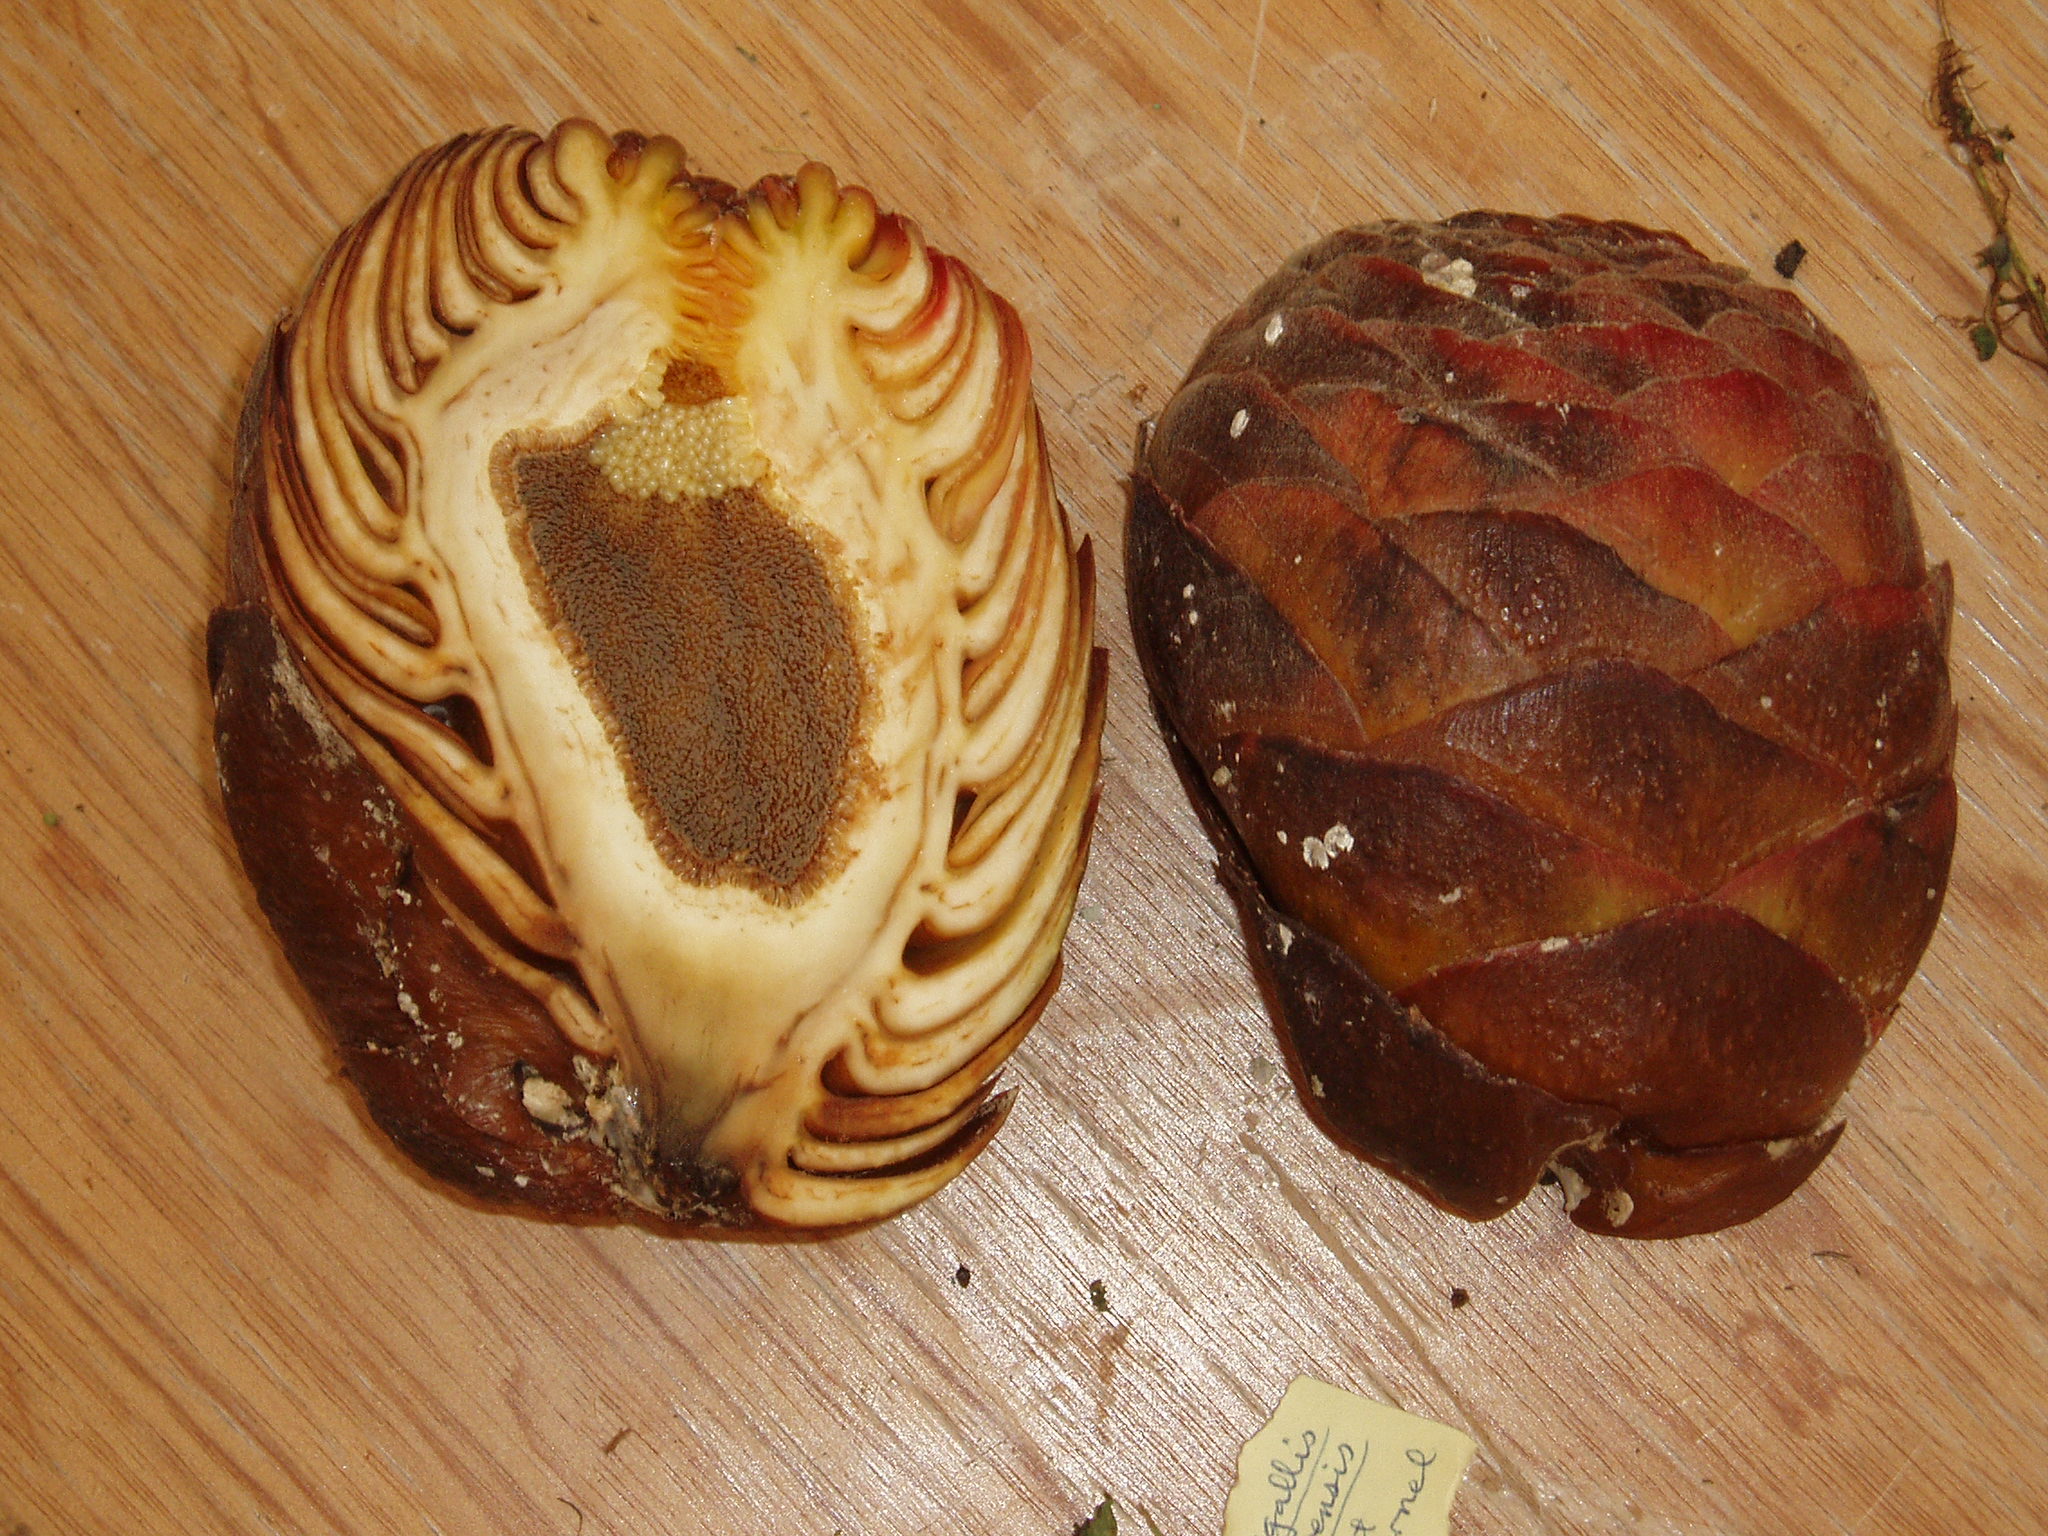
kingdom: Plantae
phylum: Tracheophyta
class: Magnoliopsida
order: Rosales
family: Moraceae
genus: Ficus
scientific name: Ficus dammaropsis
